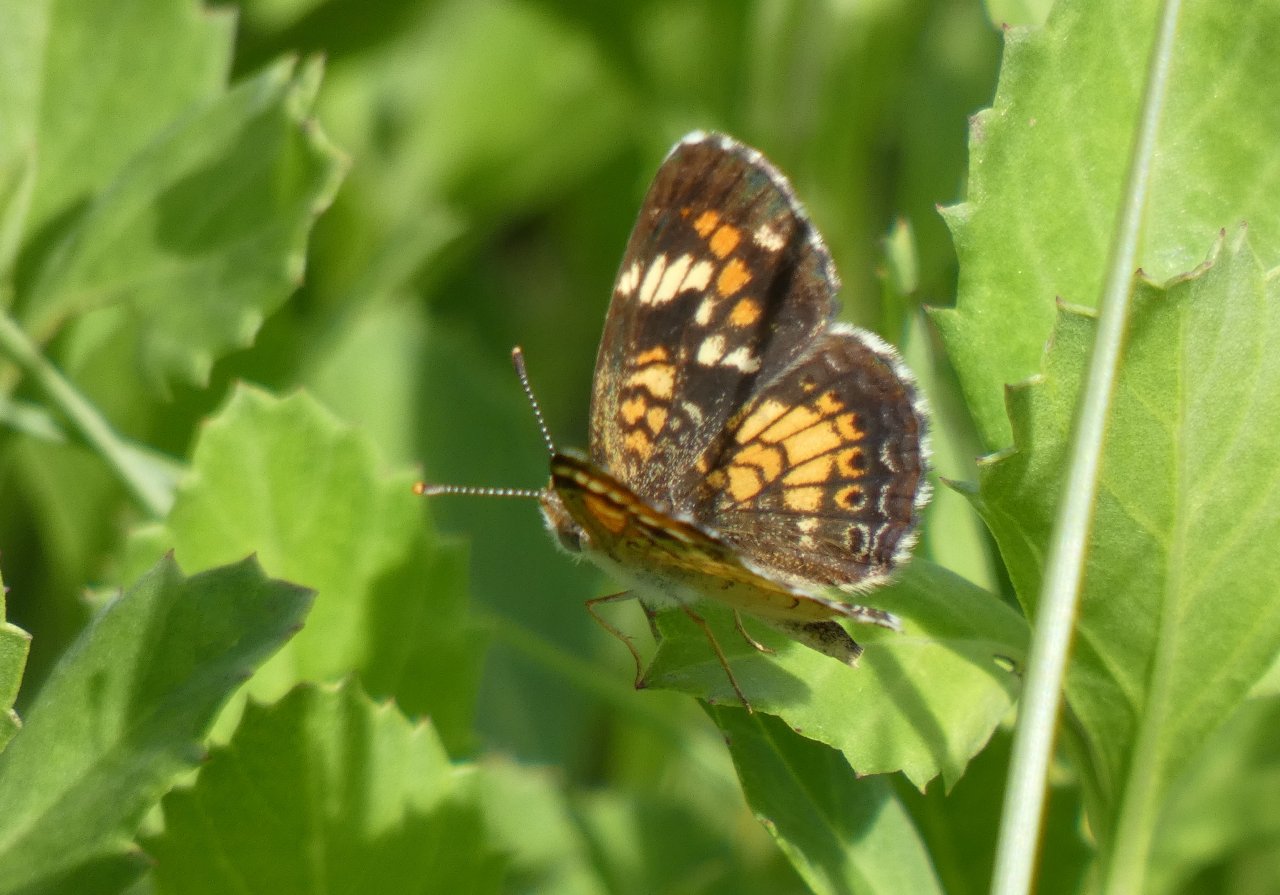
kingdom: Animalia
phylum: Arthropoda
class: Insecta
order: Lepidoptera
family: Nymphalidae
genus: Phyciodes
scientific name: Phyciodes phaon
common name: Phaon Crescent
